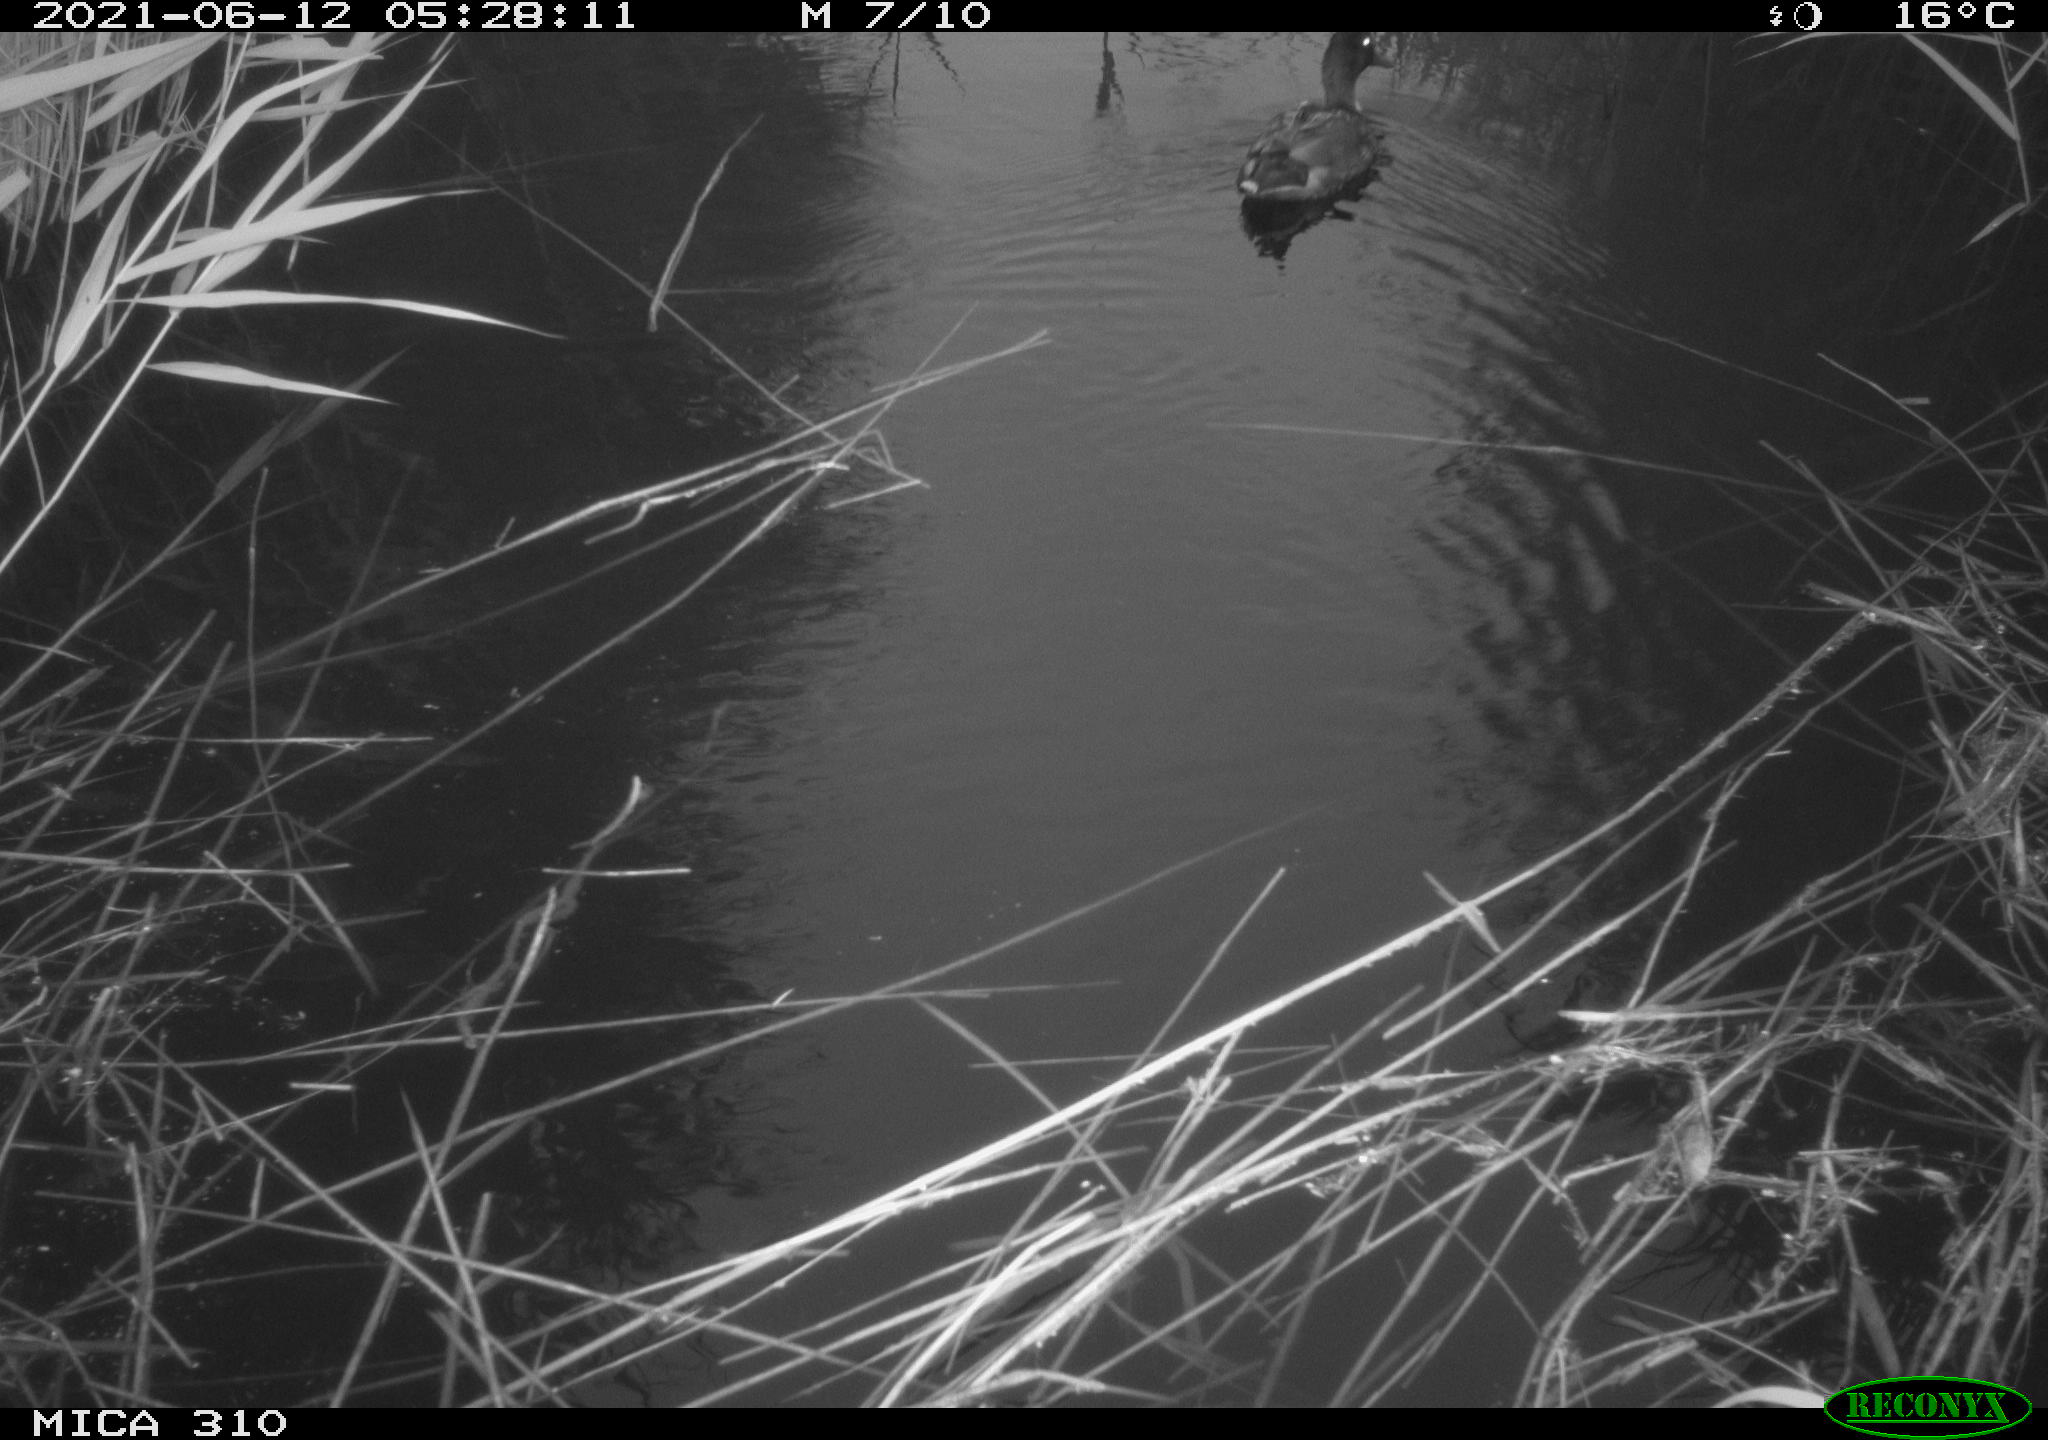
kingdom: Animalia
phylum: Chordata
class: Aves
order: Anseriformes
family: Anatidae
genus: Anas
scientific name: Anas
